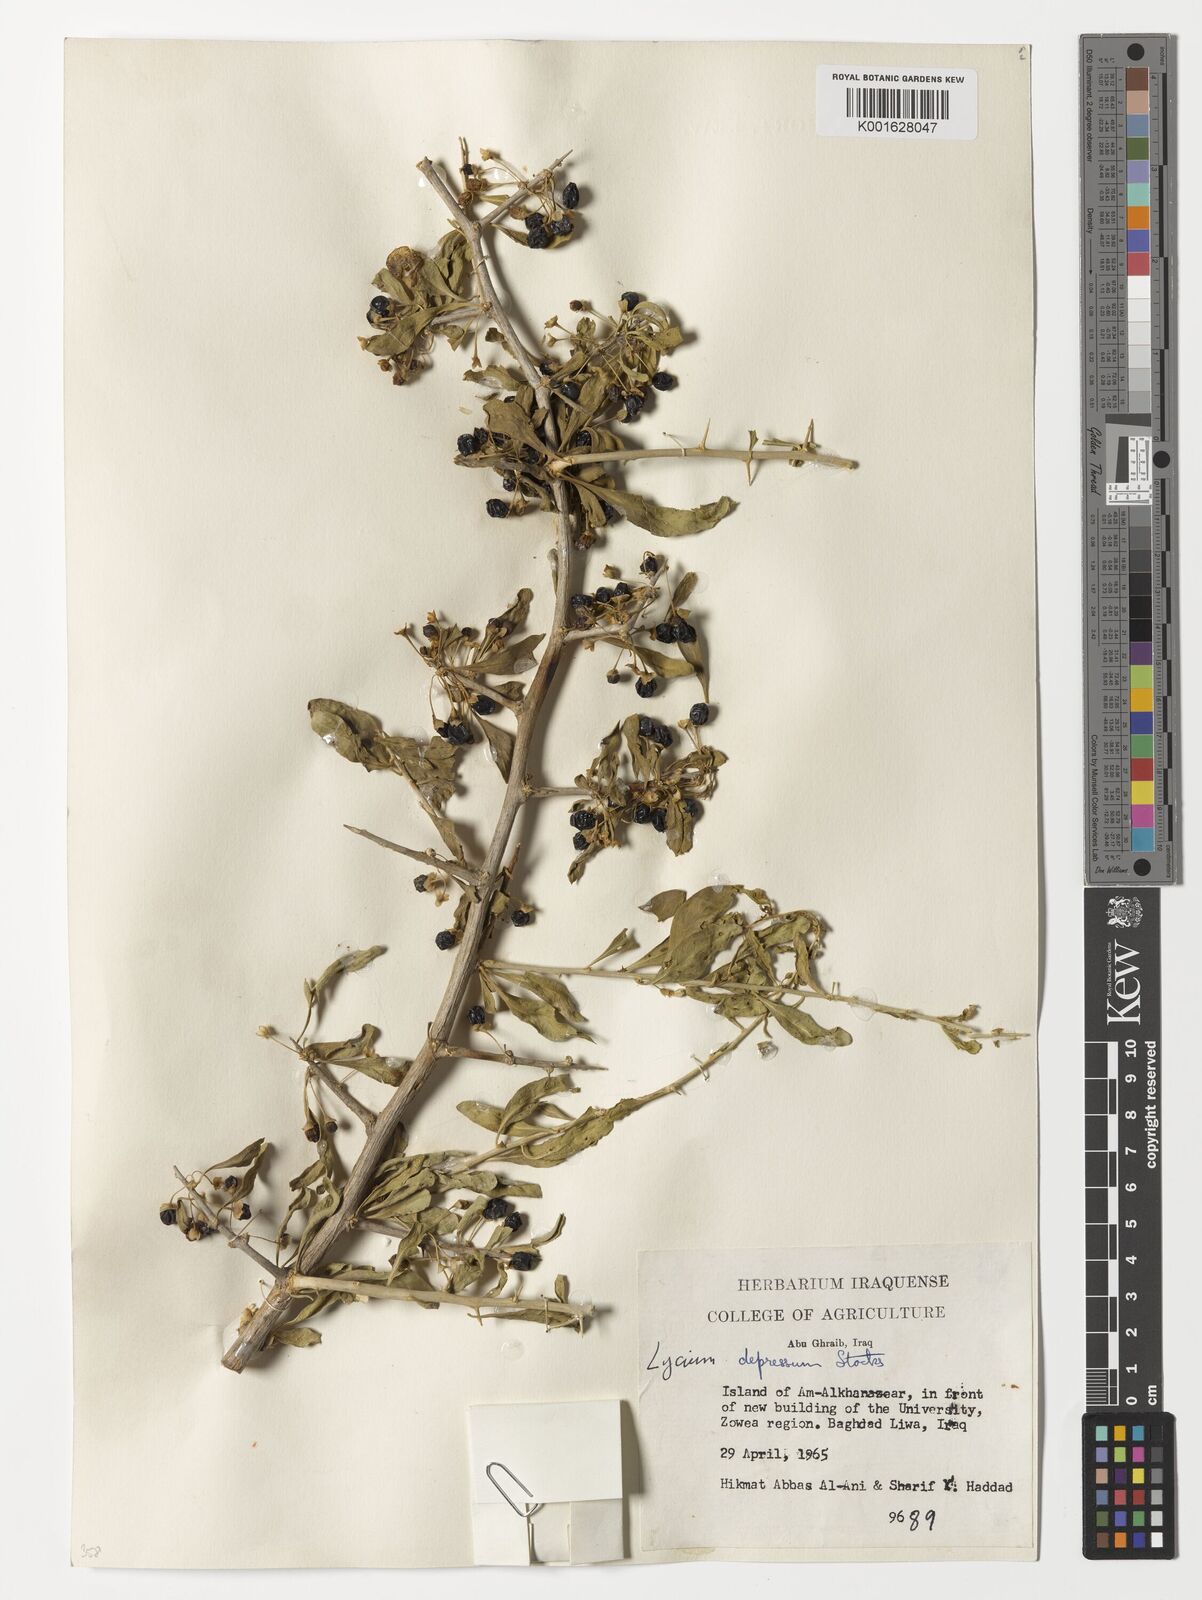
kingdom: Plantae
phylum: Tracheophyta
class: Magnoliopsida
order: Solanales
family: Solanaceae
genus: Lycium
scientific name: Lycium depressum
